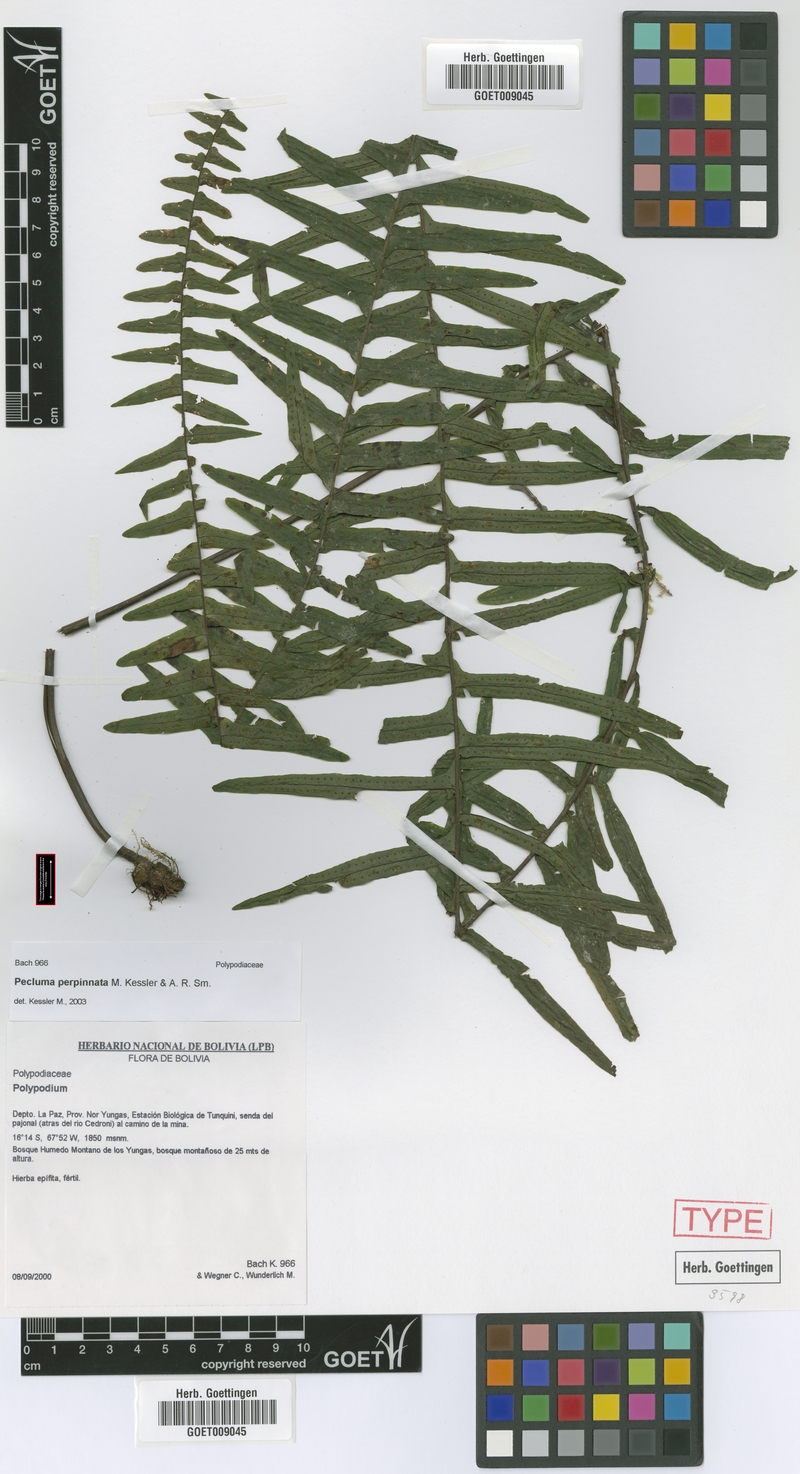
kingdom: Plantae
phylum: Tracheophyta
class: Polypodiopsida
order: Polypodiales
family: Polypodiaceae
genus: Pecluma
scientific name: Pecluma perpinnata
